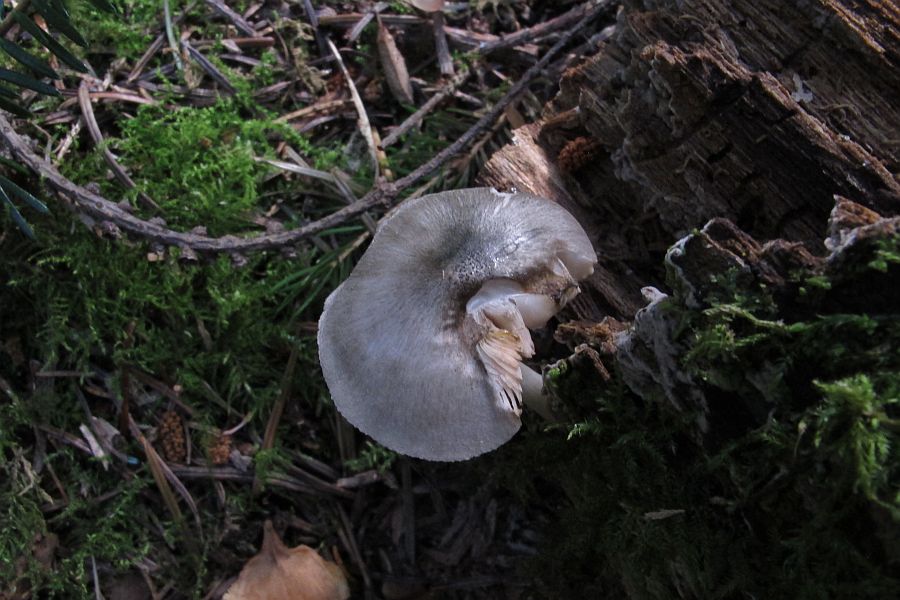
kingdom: Fungi
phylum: Basidiomycota
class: Agaricomycetes
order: Agaricales
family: Pluteaceae
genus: Pluteus
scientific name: Pluteus salicinus
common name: stiv skærmhat
